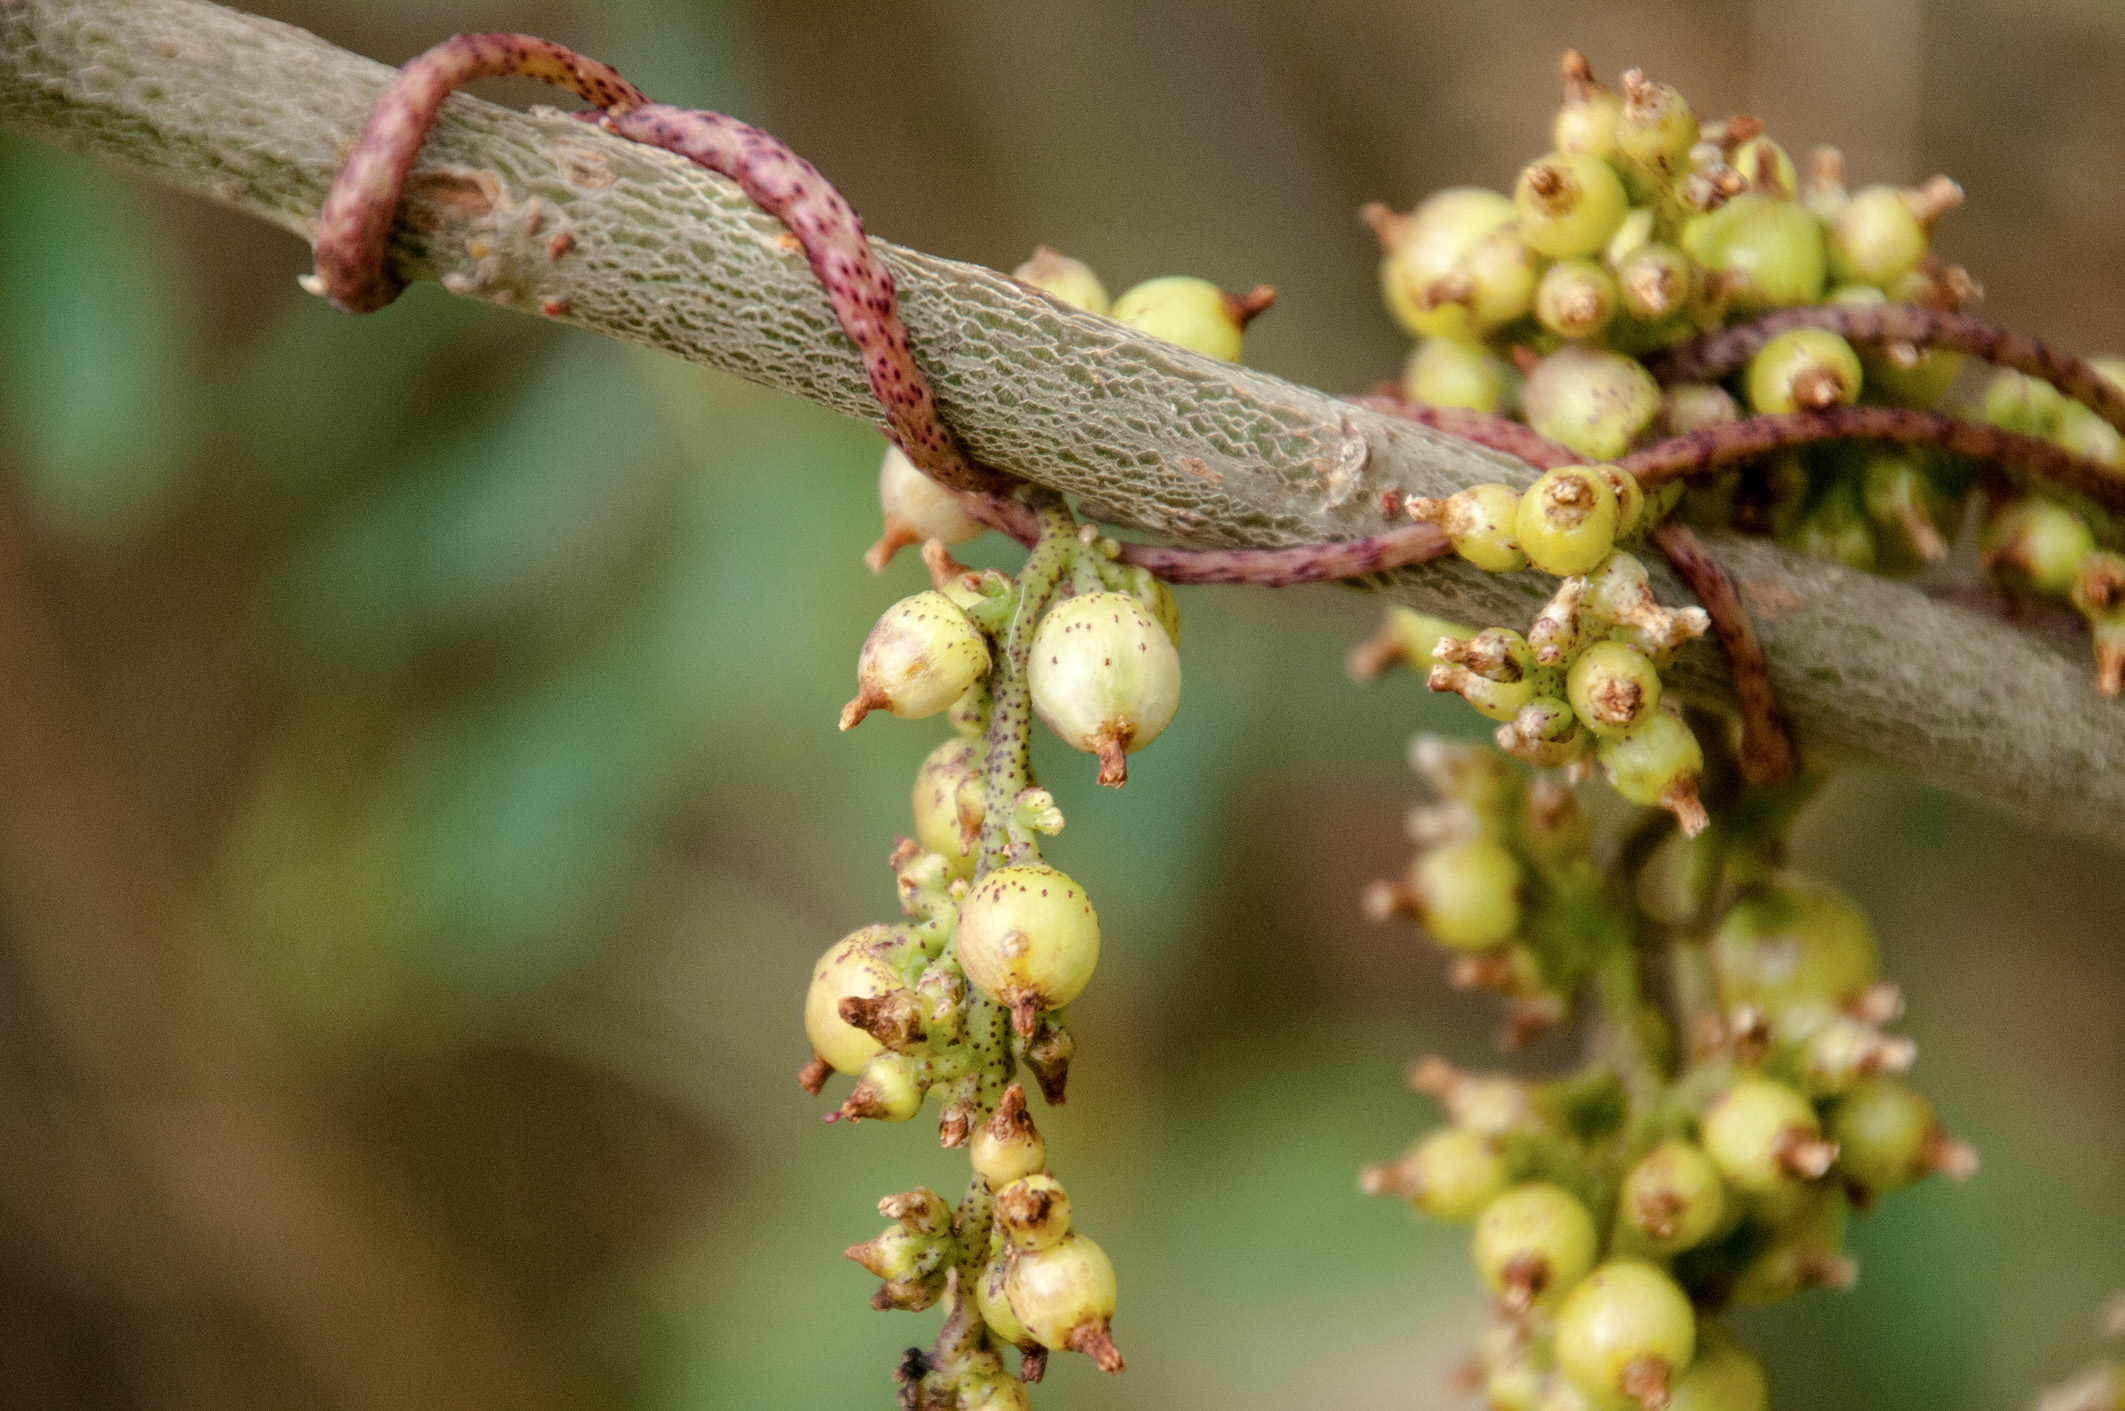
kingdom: Plantae
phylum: Tracheophyta
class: Magnoliopsida
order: Solanales
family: Convolvulaceae
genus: Cuscuta
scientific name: Cuscuta lupuliformis
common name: Hop dodder
